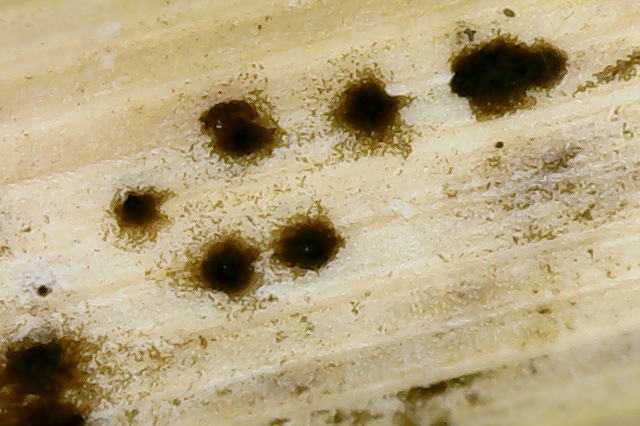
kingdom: Fungi
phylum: Ascomycota
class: Dothideomycetes
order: Pleosporales
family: Phaeosphaeriaceae
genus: Hendersonia
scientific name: Hendersonia culmiseda
